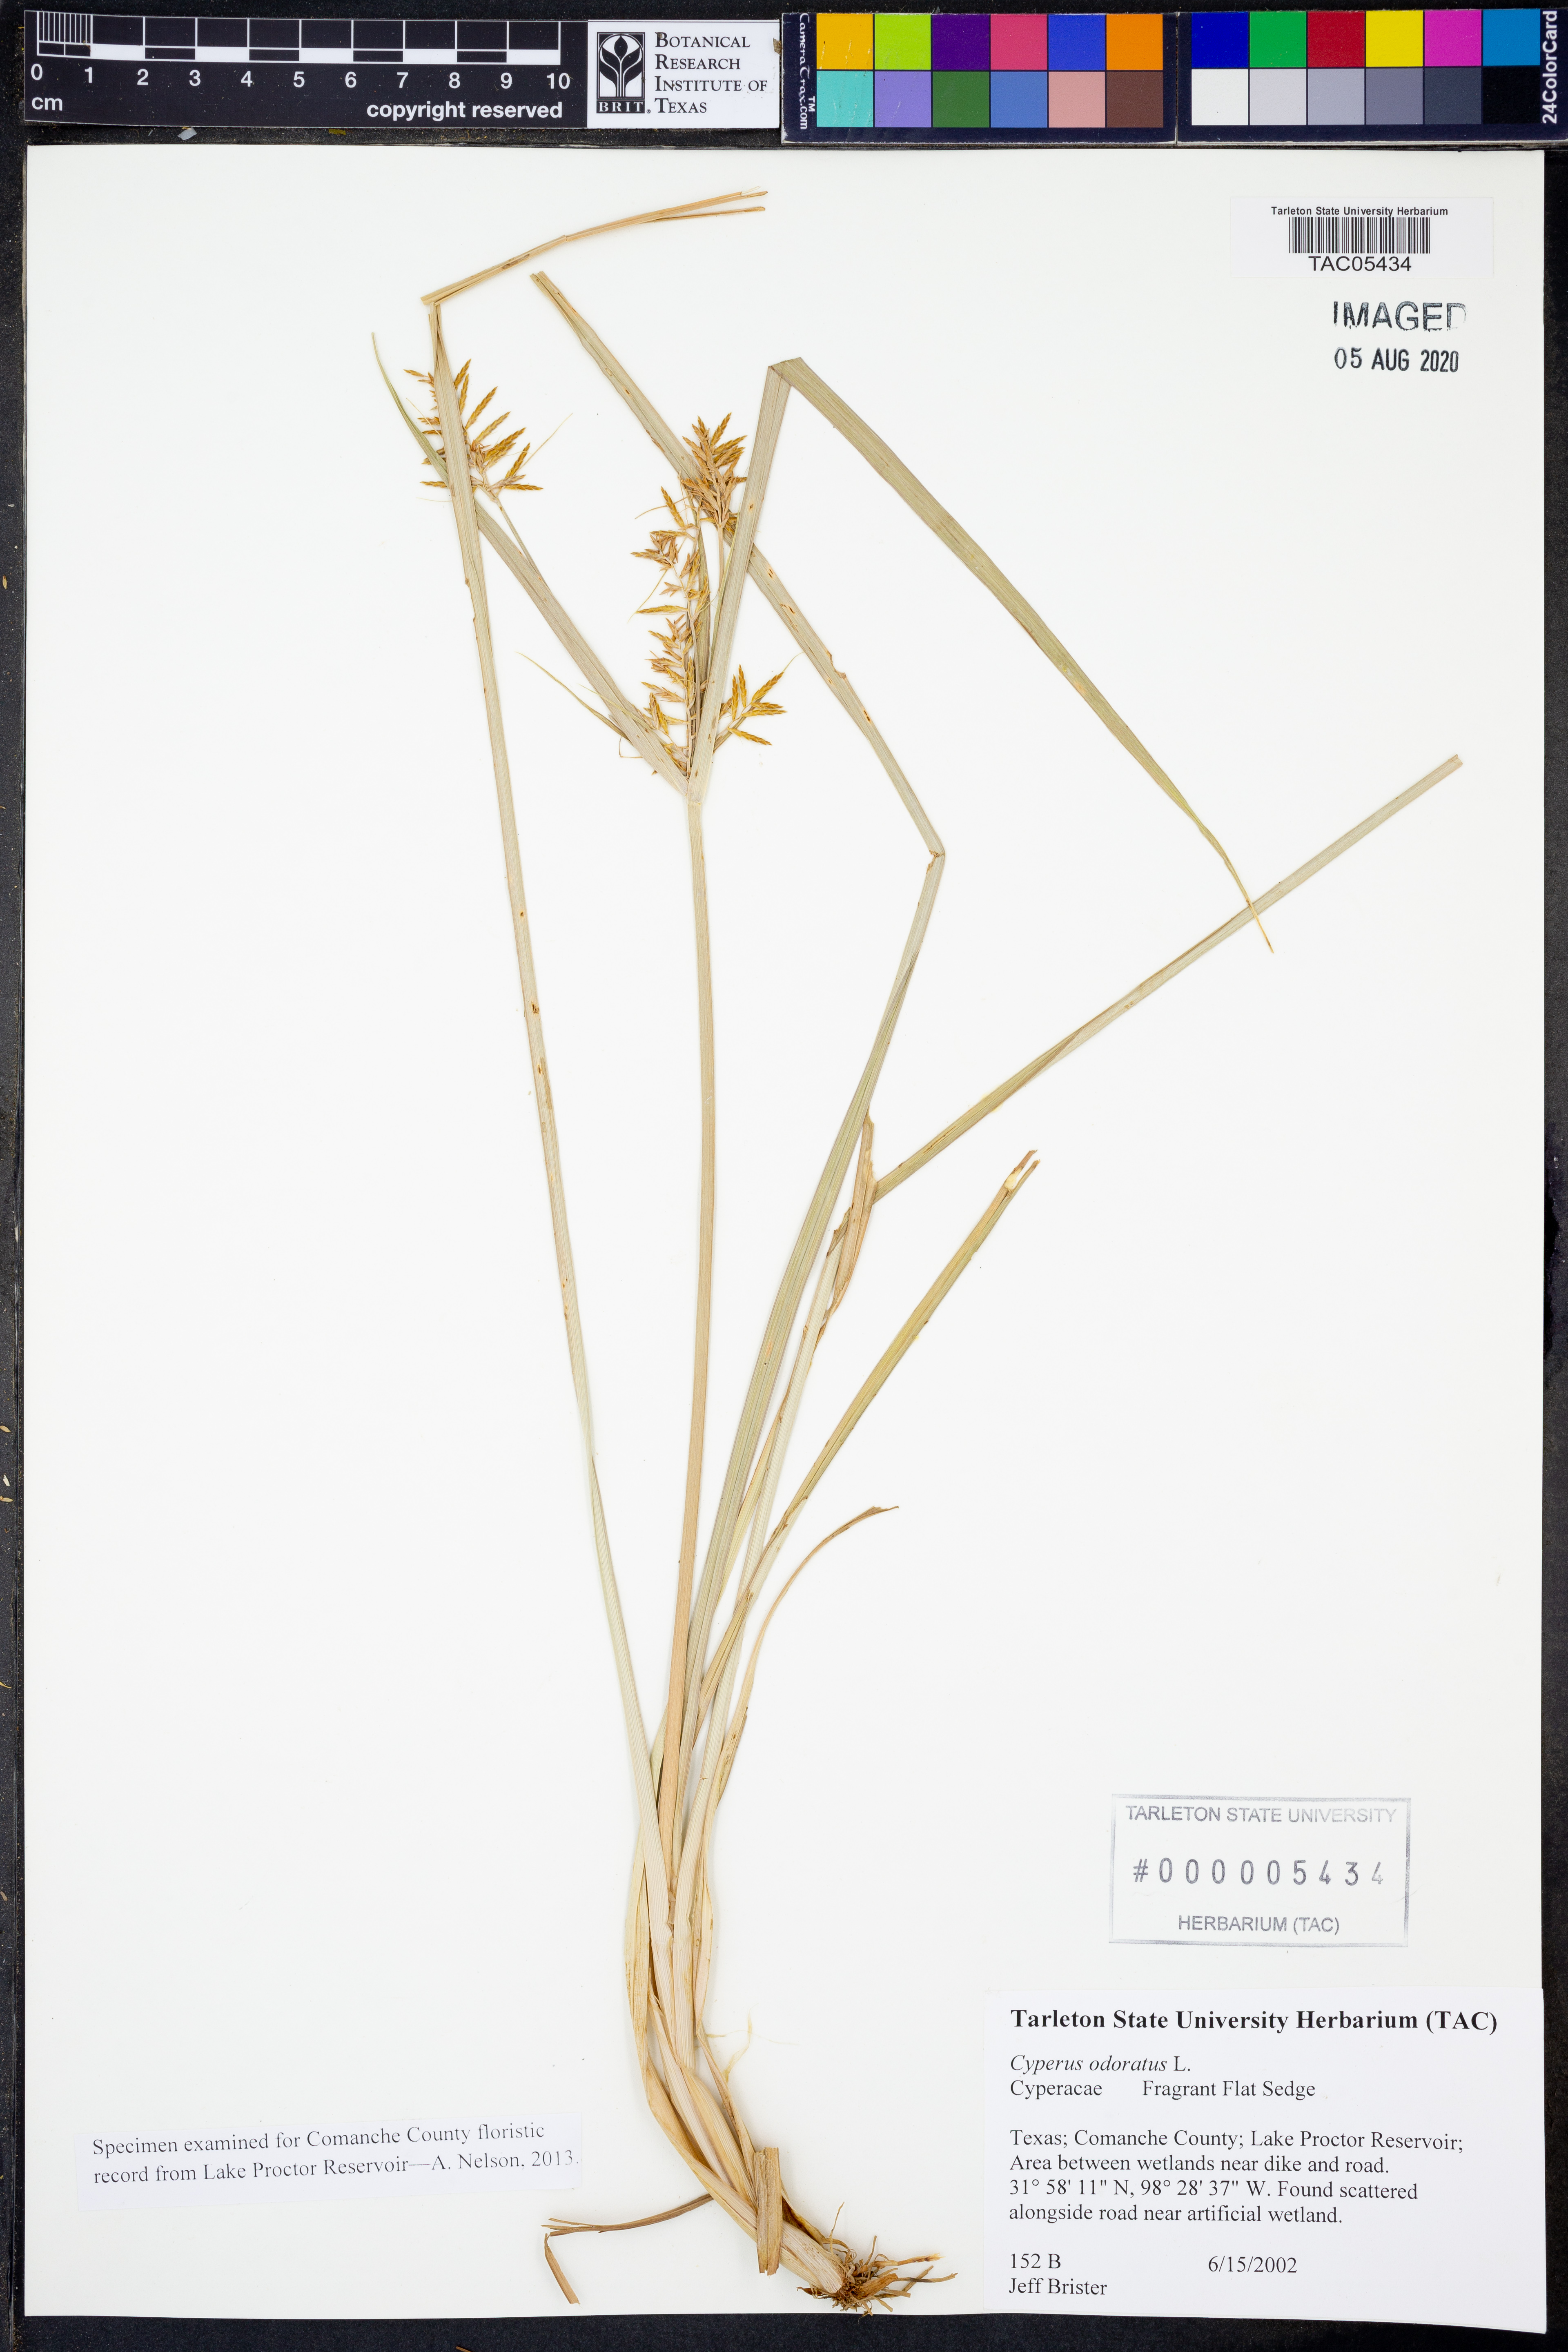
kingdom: Plantae
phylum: Tracheophyta
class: Liliopsida
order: Poales
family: Cyperaceae
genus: Cyperus
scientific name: Cyperus odoratus
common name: Fragrant flatsedge
